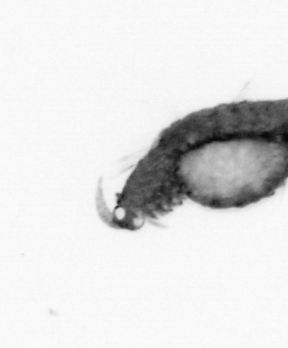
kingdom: Animalia
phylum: Annelida
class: Polychaeta
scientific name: Polychaeta
